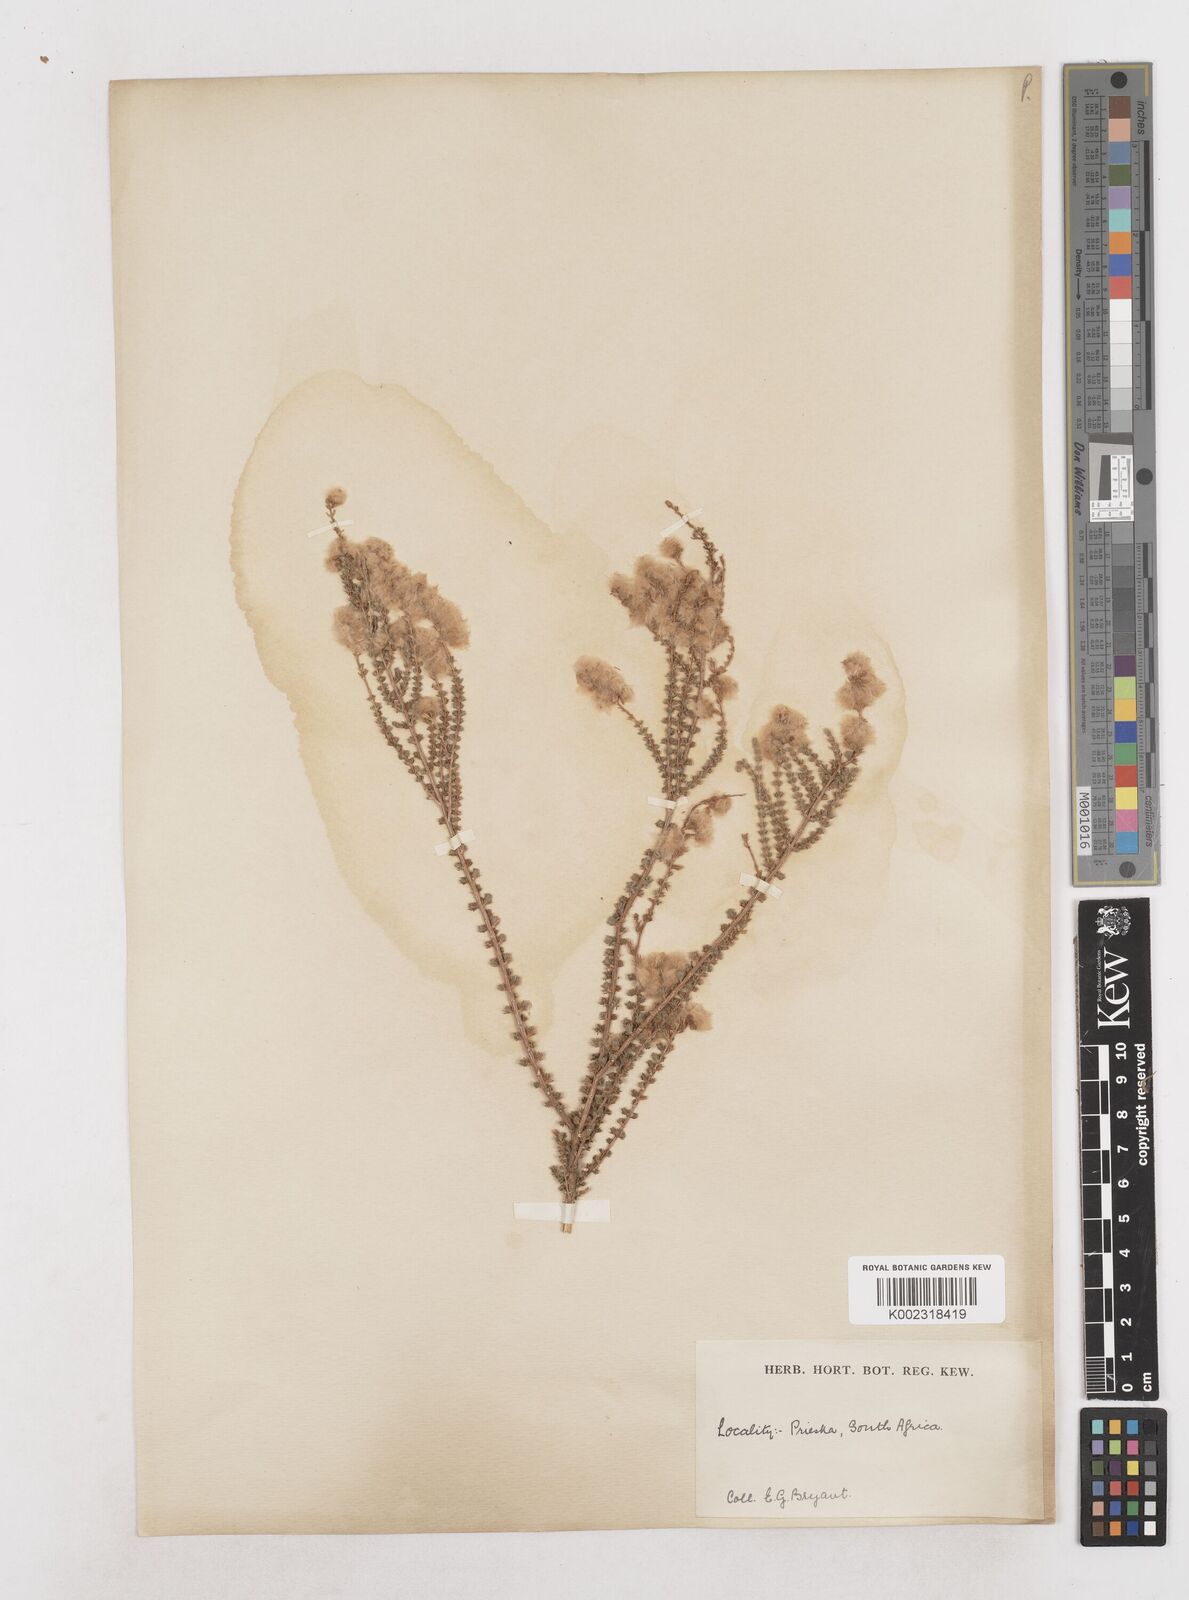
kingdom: Plantae
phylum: Tracheophyta
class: Magnoliopsida
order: Asterales
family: Asteraceae
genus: Eriocephalus
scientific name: Eriocephalus
